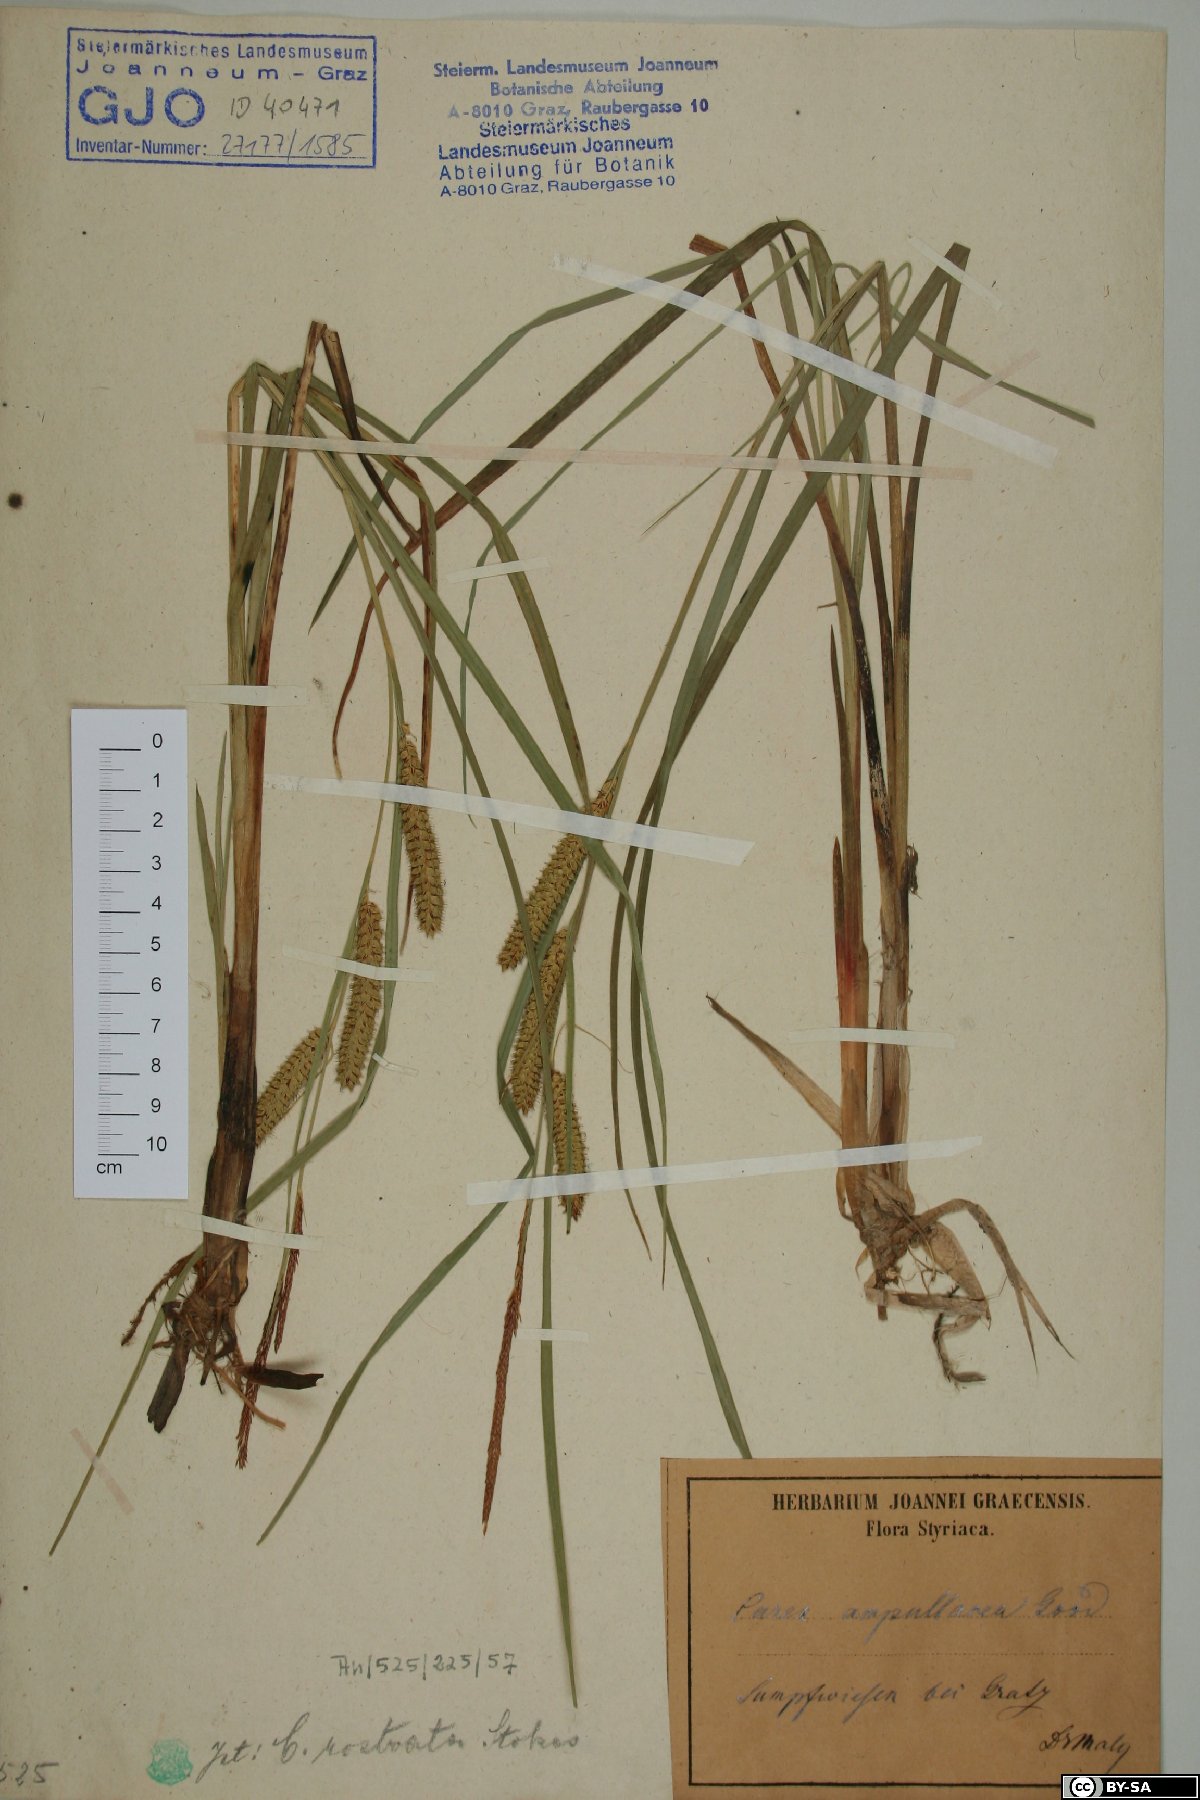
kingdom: Plantae
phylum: Tracheophyta
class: Liliopsida
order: Poales
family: Cyperaceae
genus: Carex
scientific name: Carex rostrata
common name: Bottle sedge
